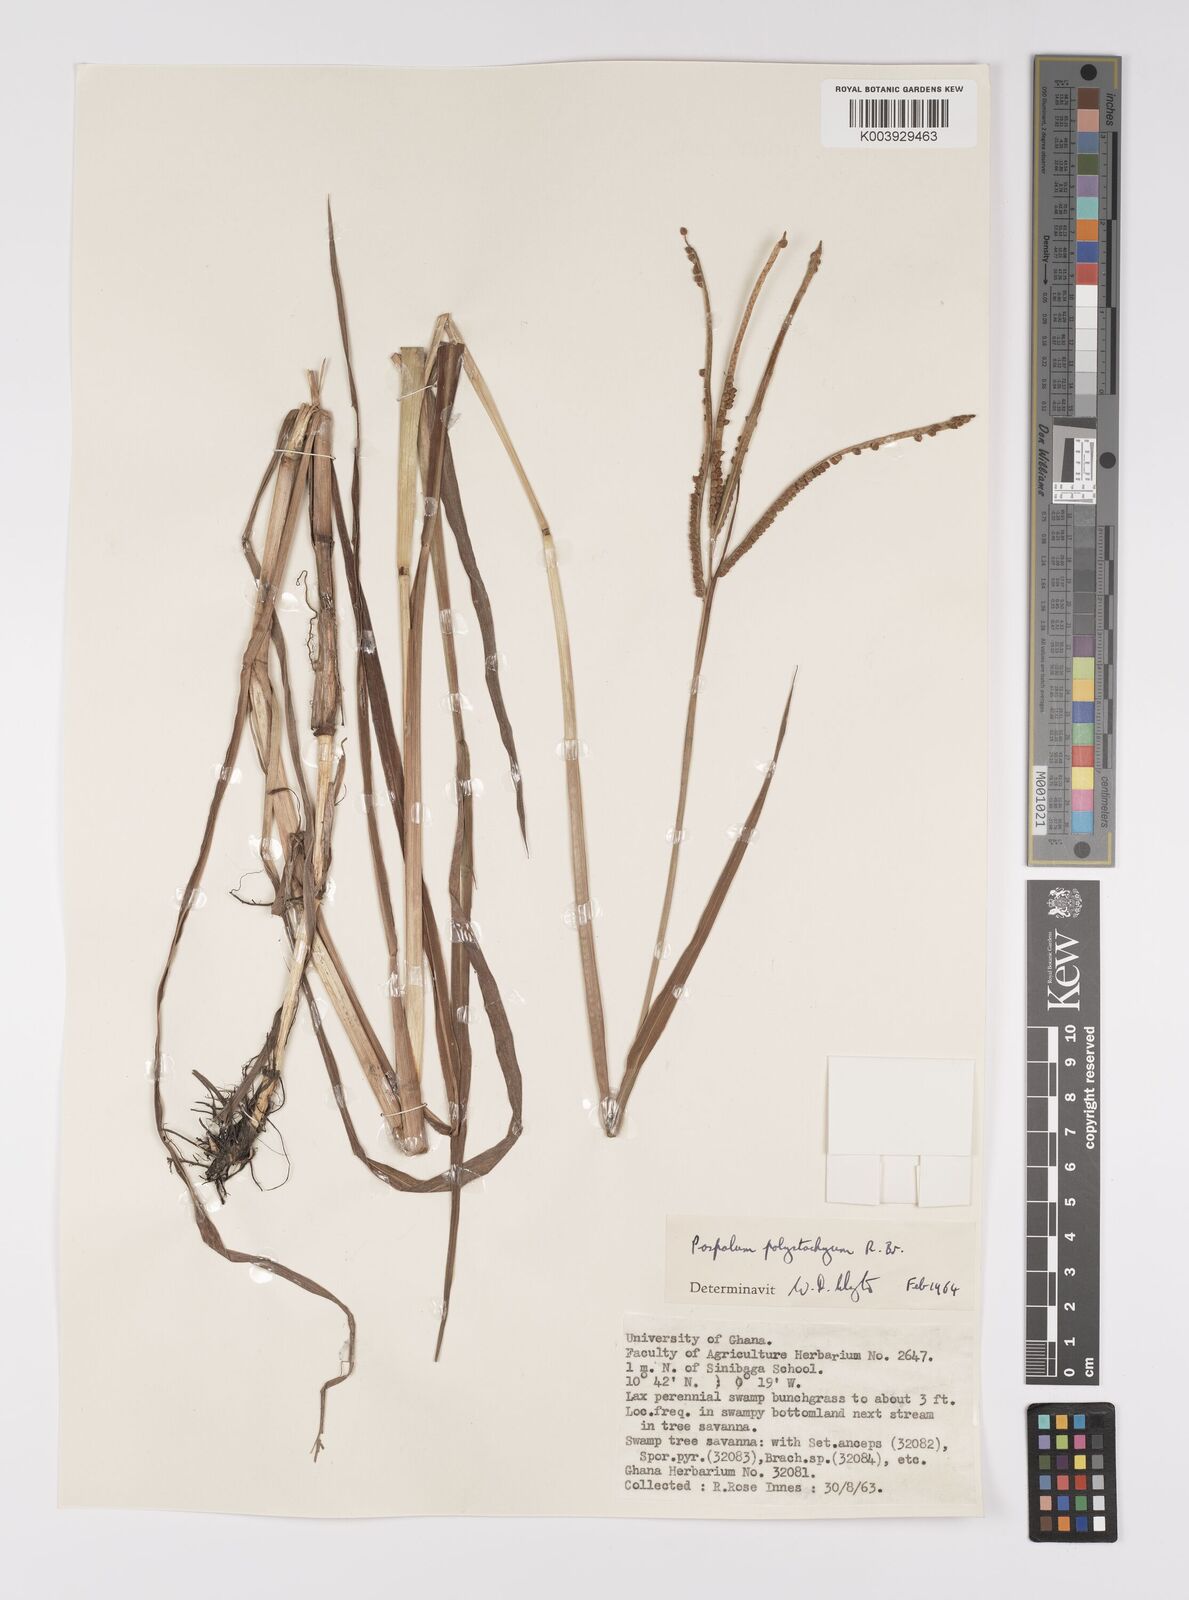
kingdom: Plantae
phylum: Tracheophyta
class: Liliopsida
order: Poales
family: Poaceae
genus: Paspalum
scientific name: Paspalum scrobiculatum
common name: Kodo millet
